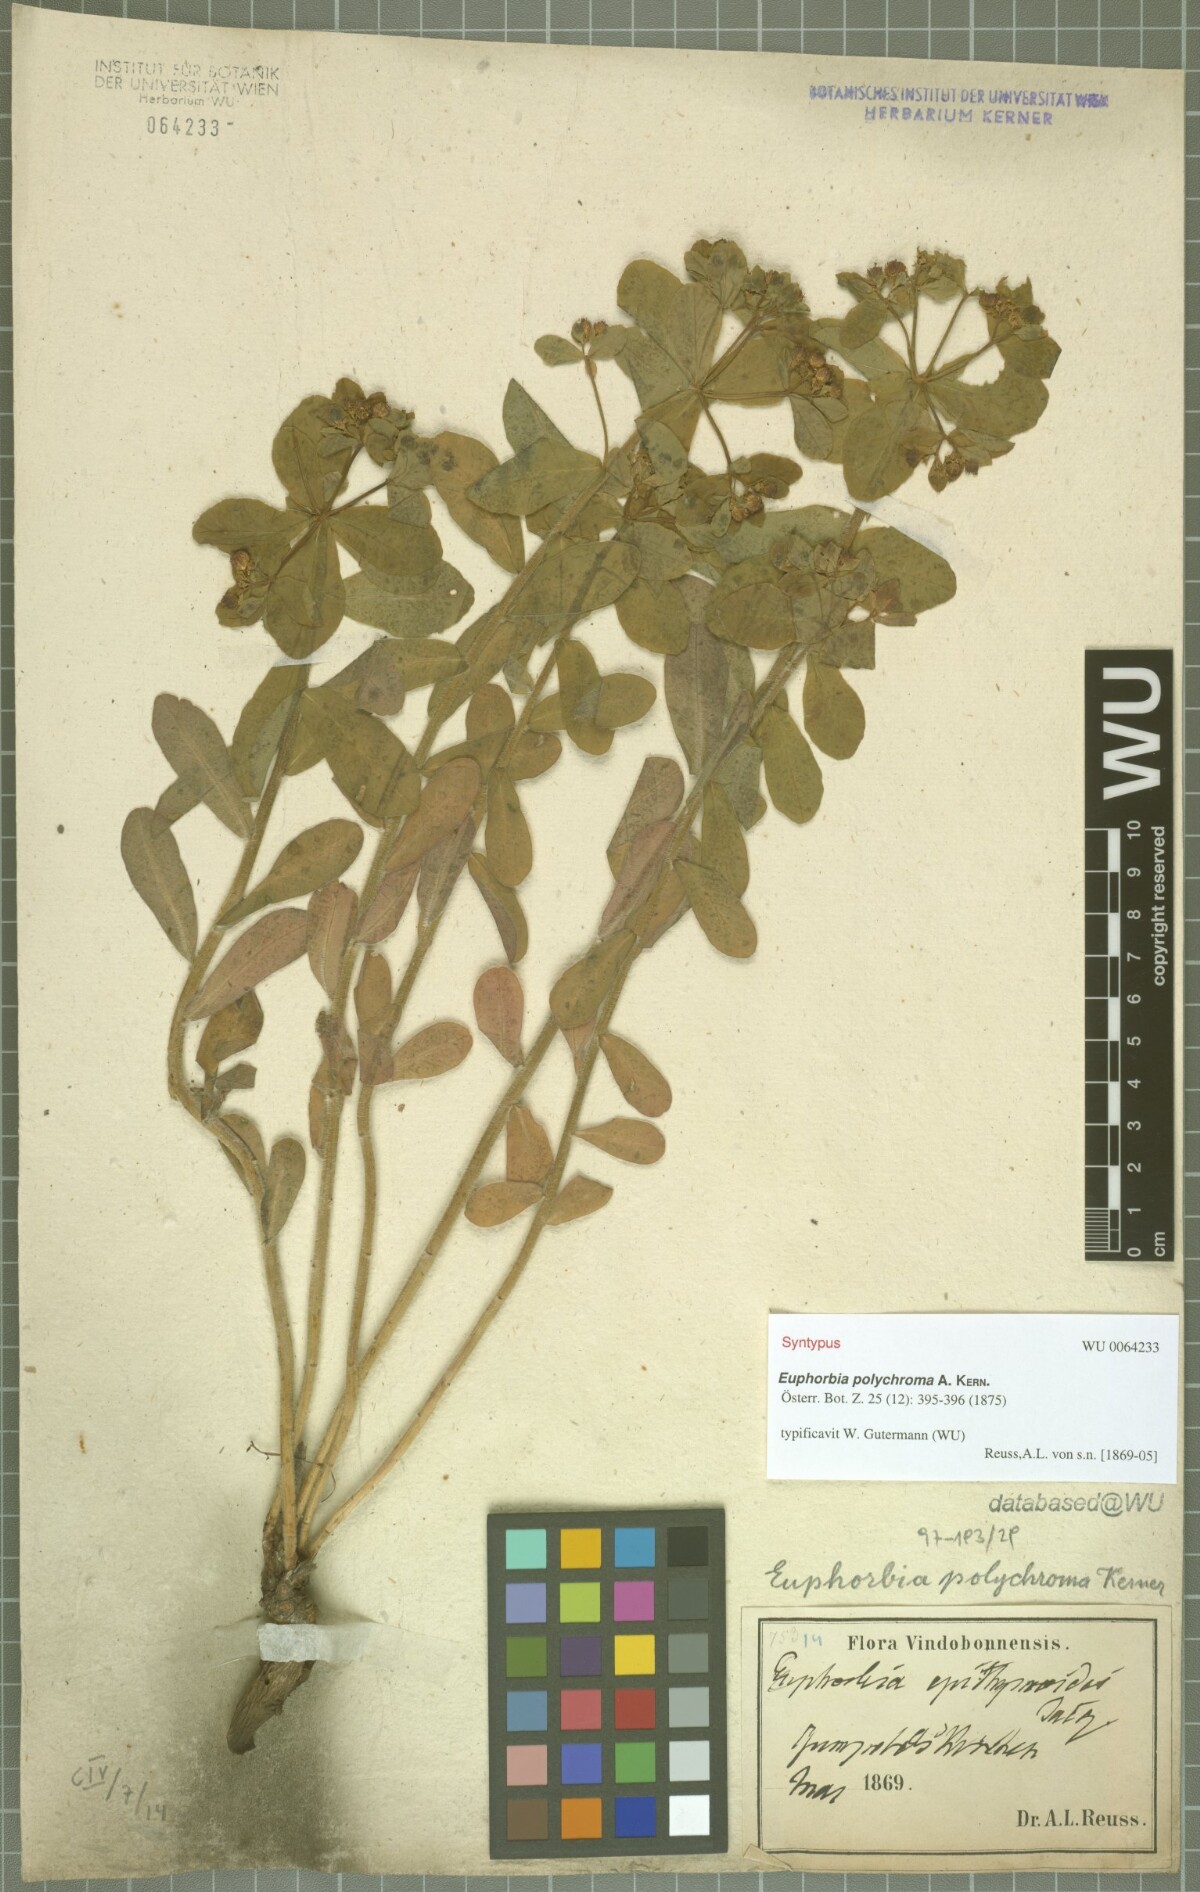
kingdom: Plantae
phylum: Tracheophyta
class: Magnoliopsida
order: Malpighiales
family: Euphorbiaceae
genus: Euphorbia
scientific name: Euphorbia epithymoides
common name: Cushion spurge
